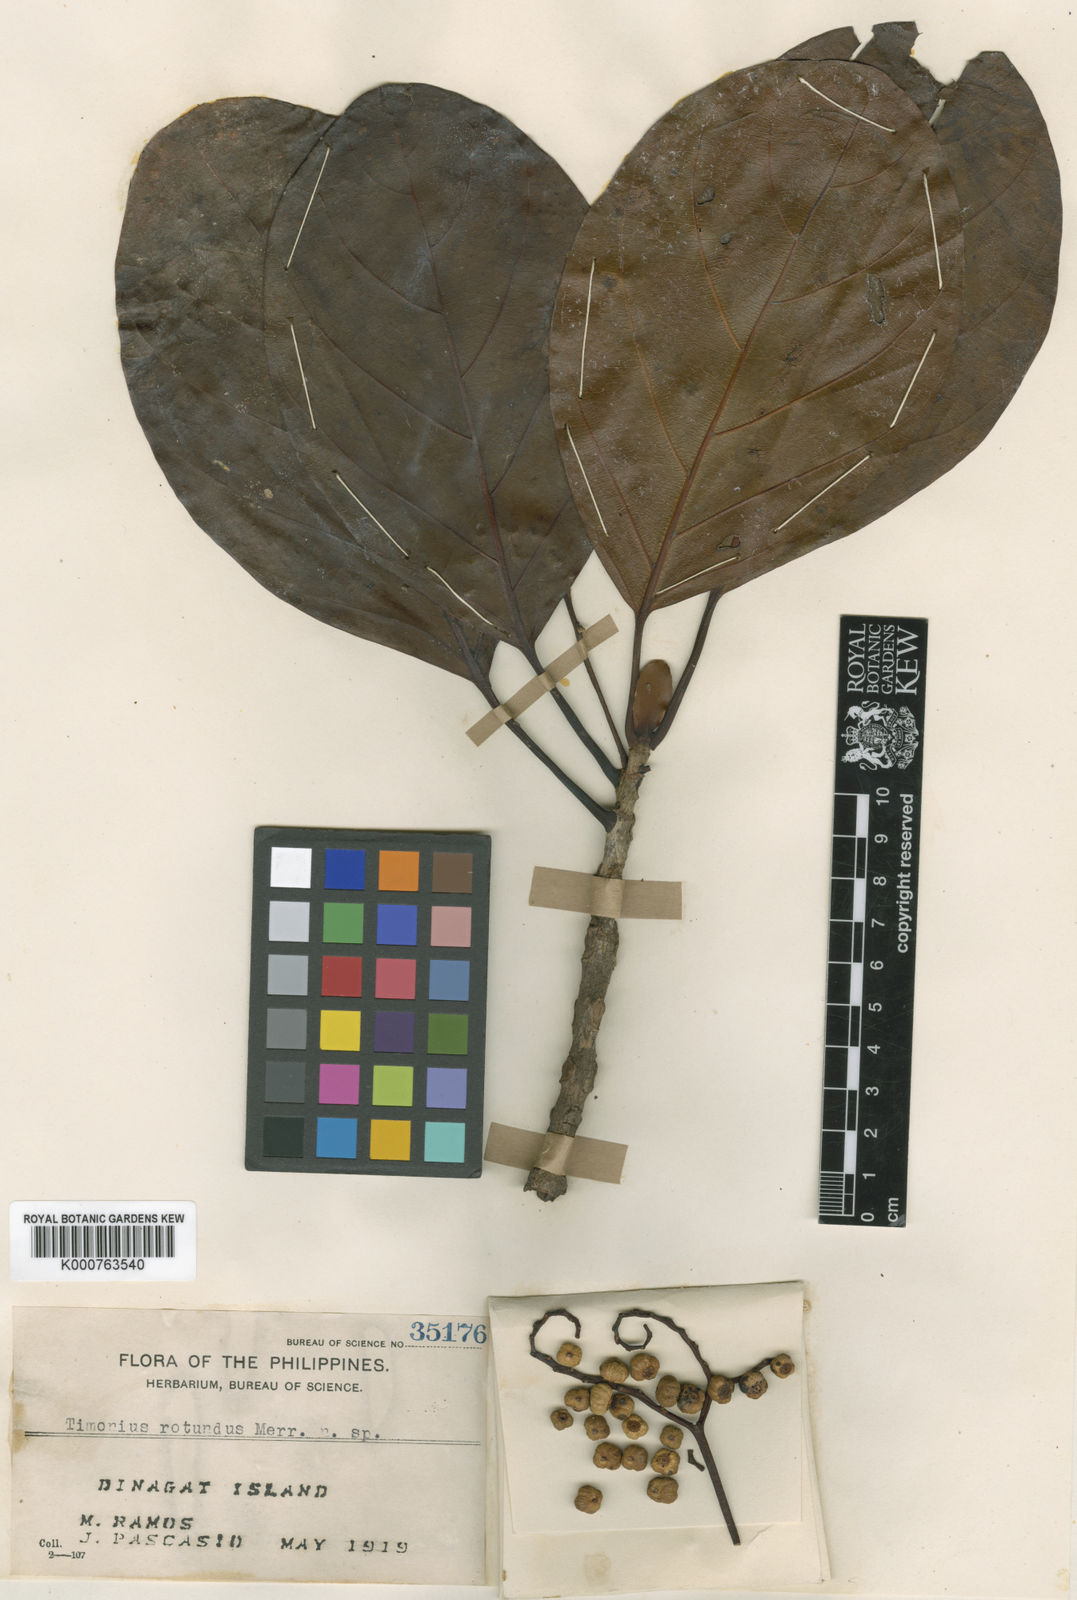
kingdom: Plantae
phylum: Tracheophyta
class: Magnoliopsida
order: Gentianales
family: Rubiaceae
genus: Timonius
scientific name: Timonius rotundus
